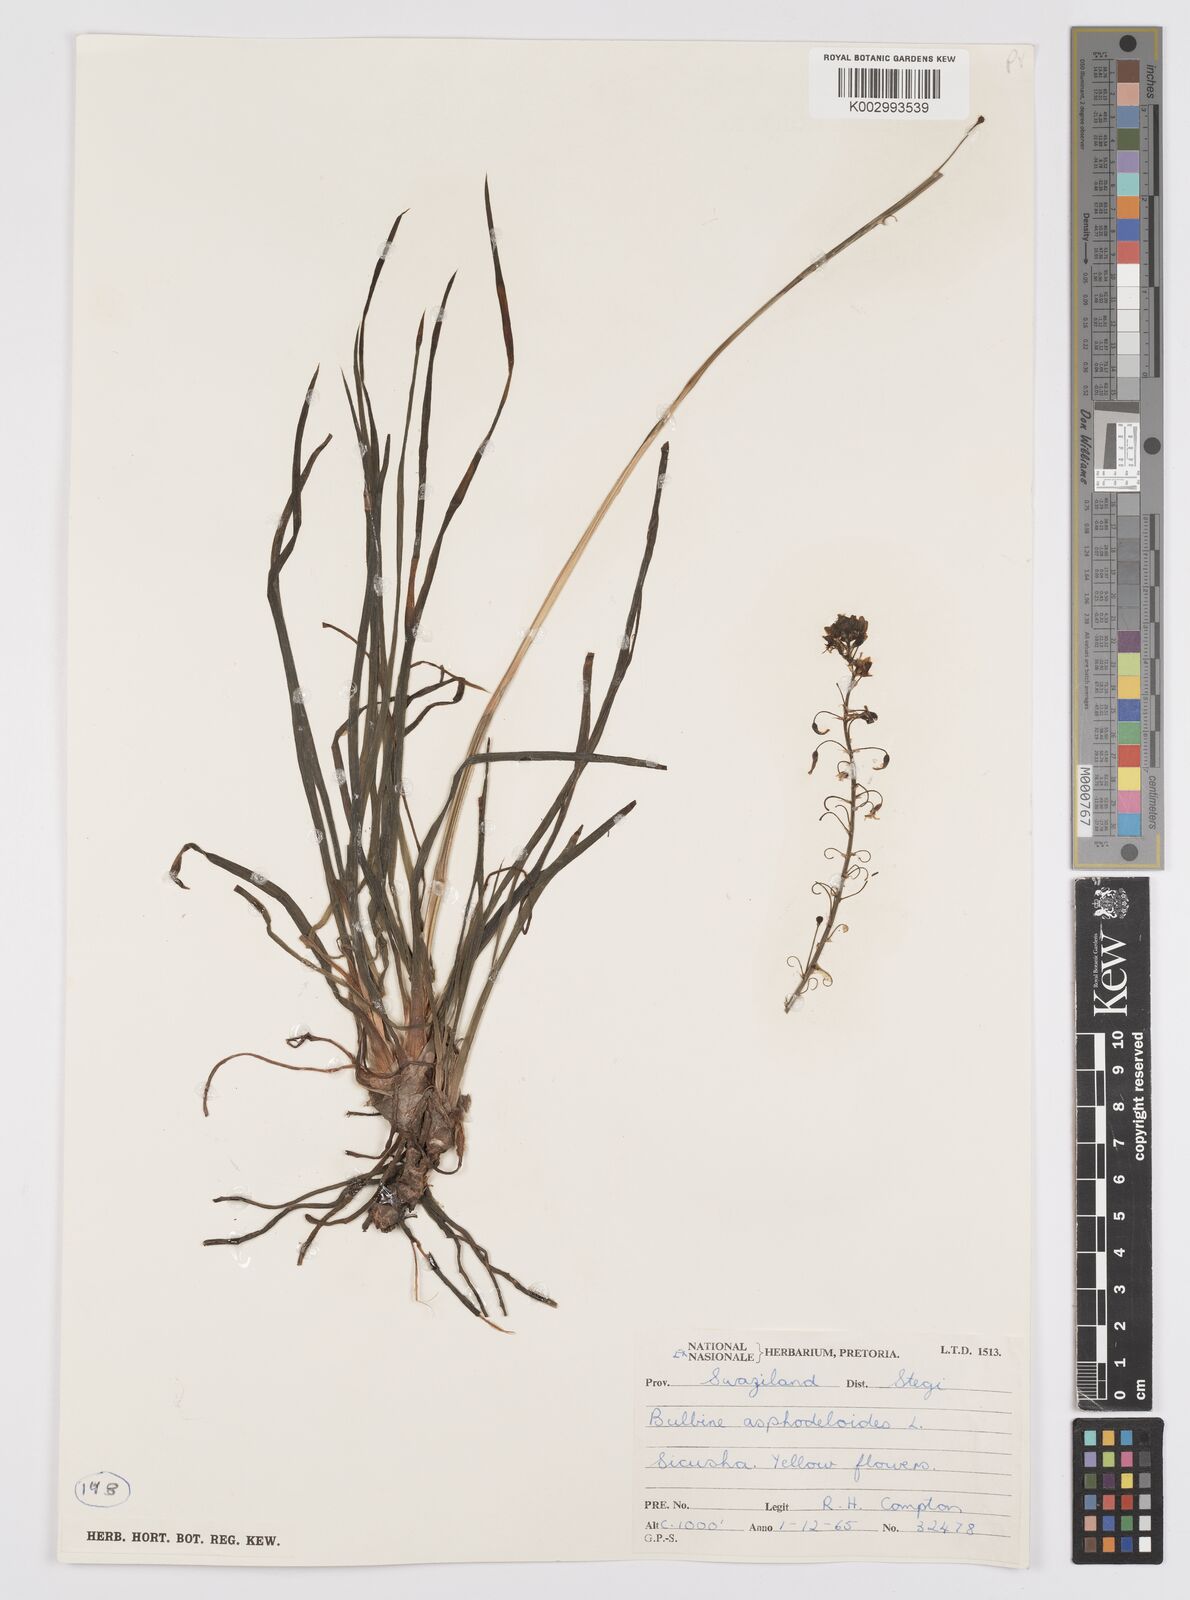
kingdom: Plantae
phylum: Tracheophyta
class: Liliopsida
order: Asparagales
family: Asphodelaceae
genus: Bulbine
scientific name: Bulbine asphodeloides
